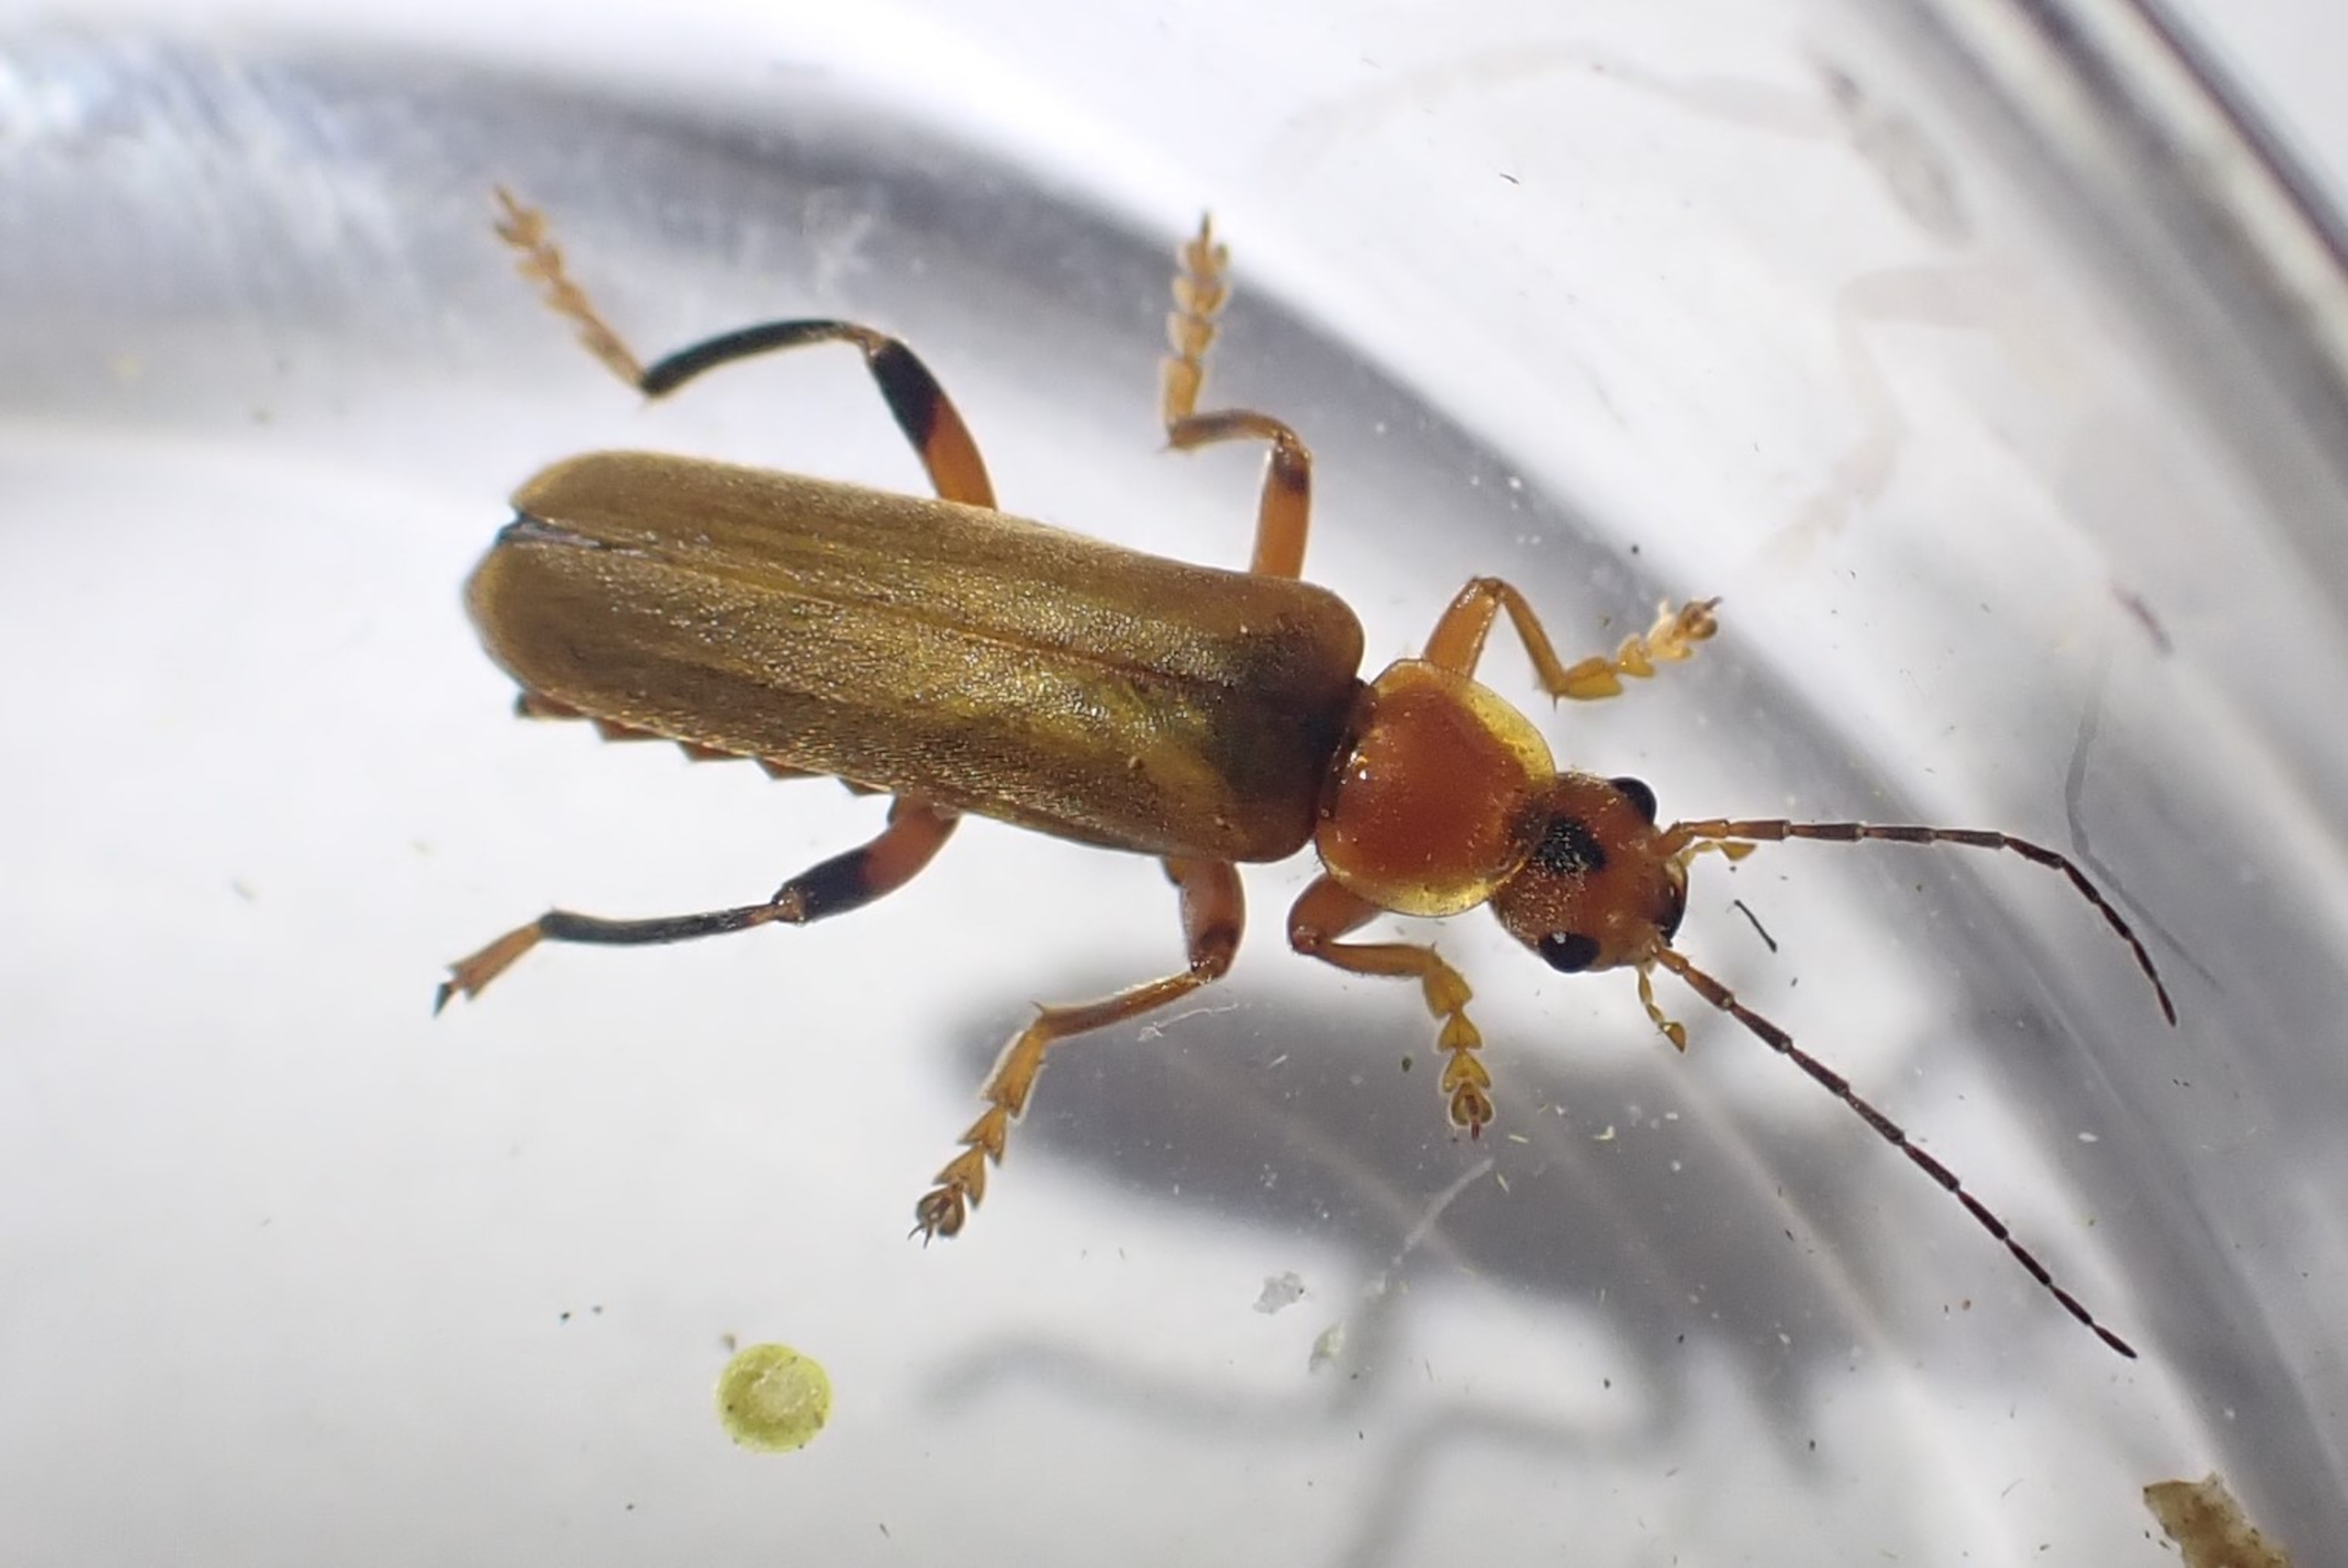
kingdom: Animalia
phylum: Arthropoda
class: Insecta
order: Coleoptera
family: Cantharidae
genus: Cantharis
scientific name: Cantharis livida
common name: Gul blødvinge
